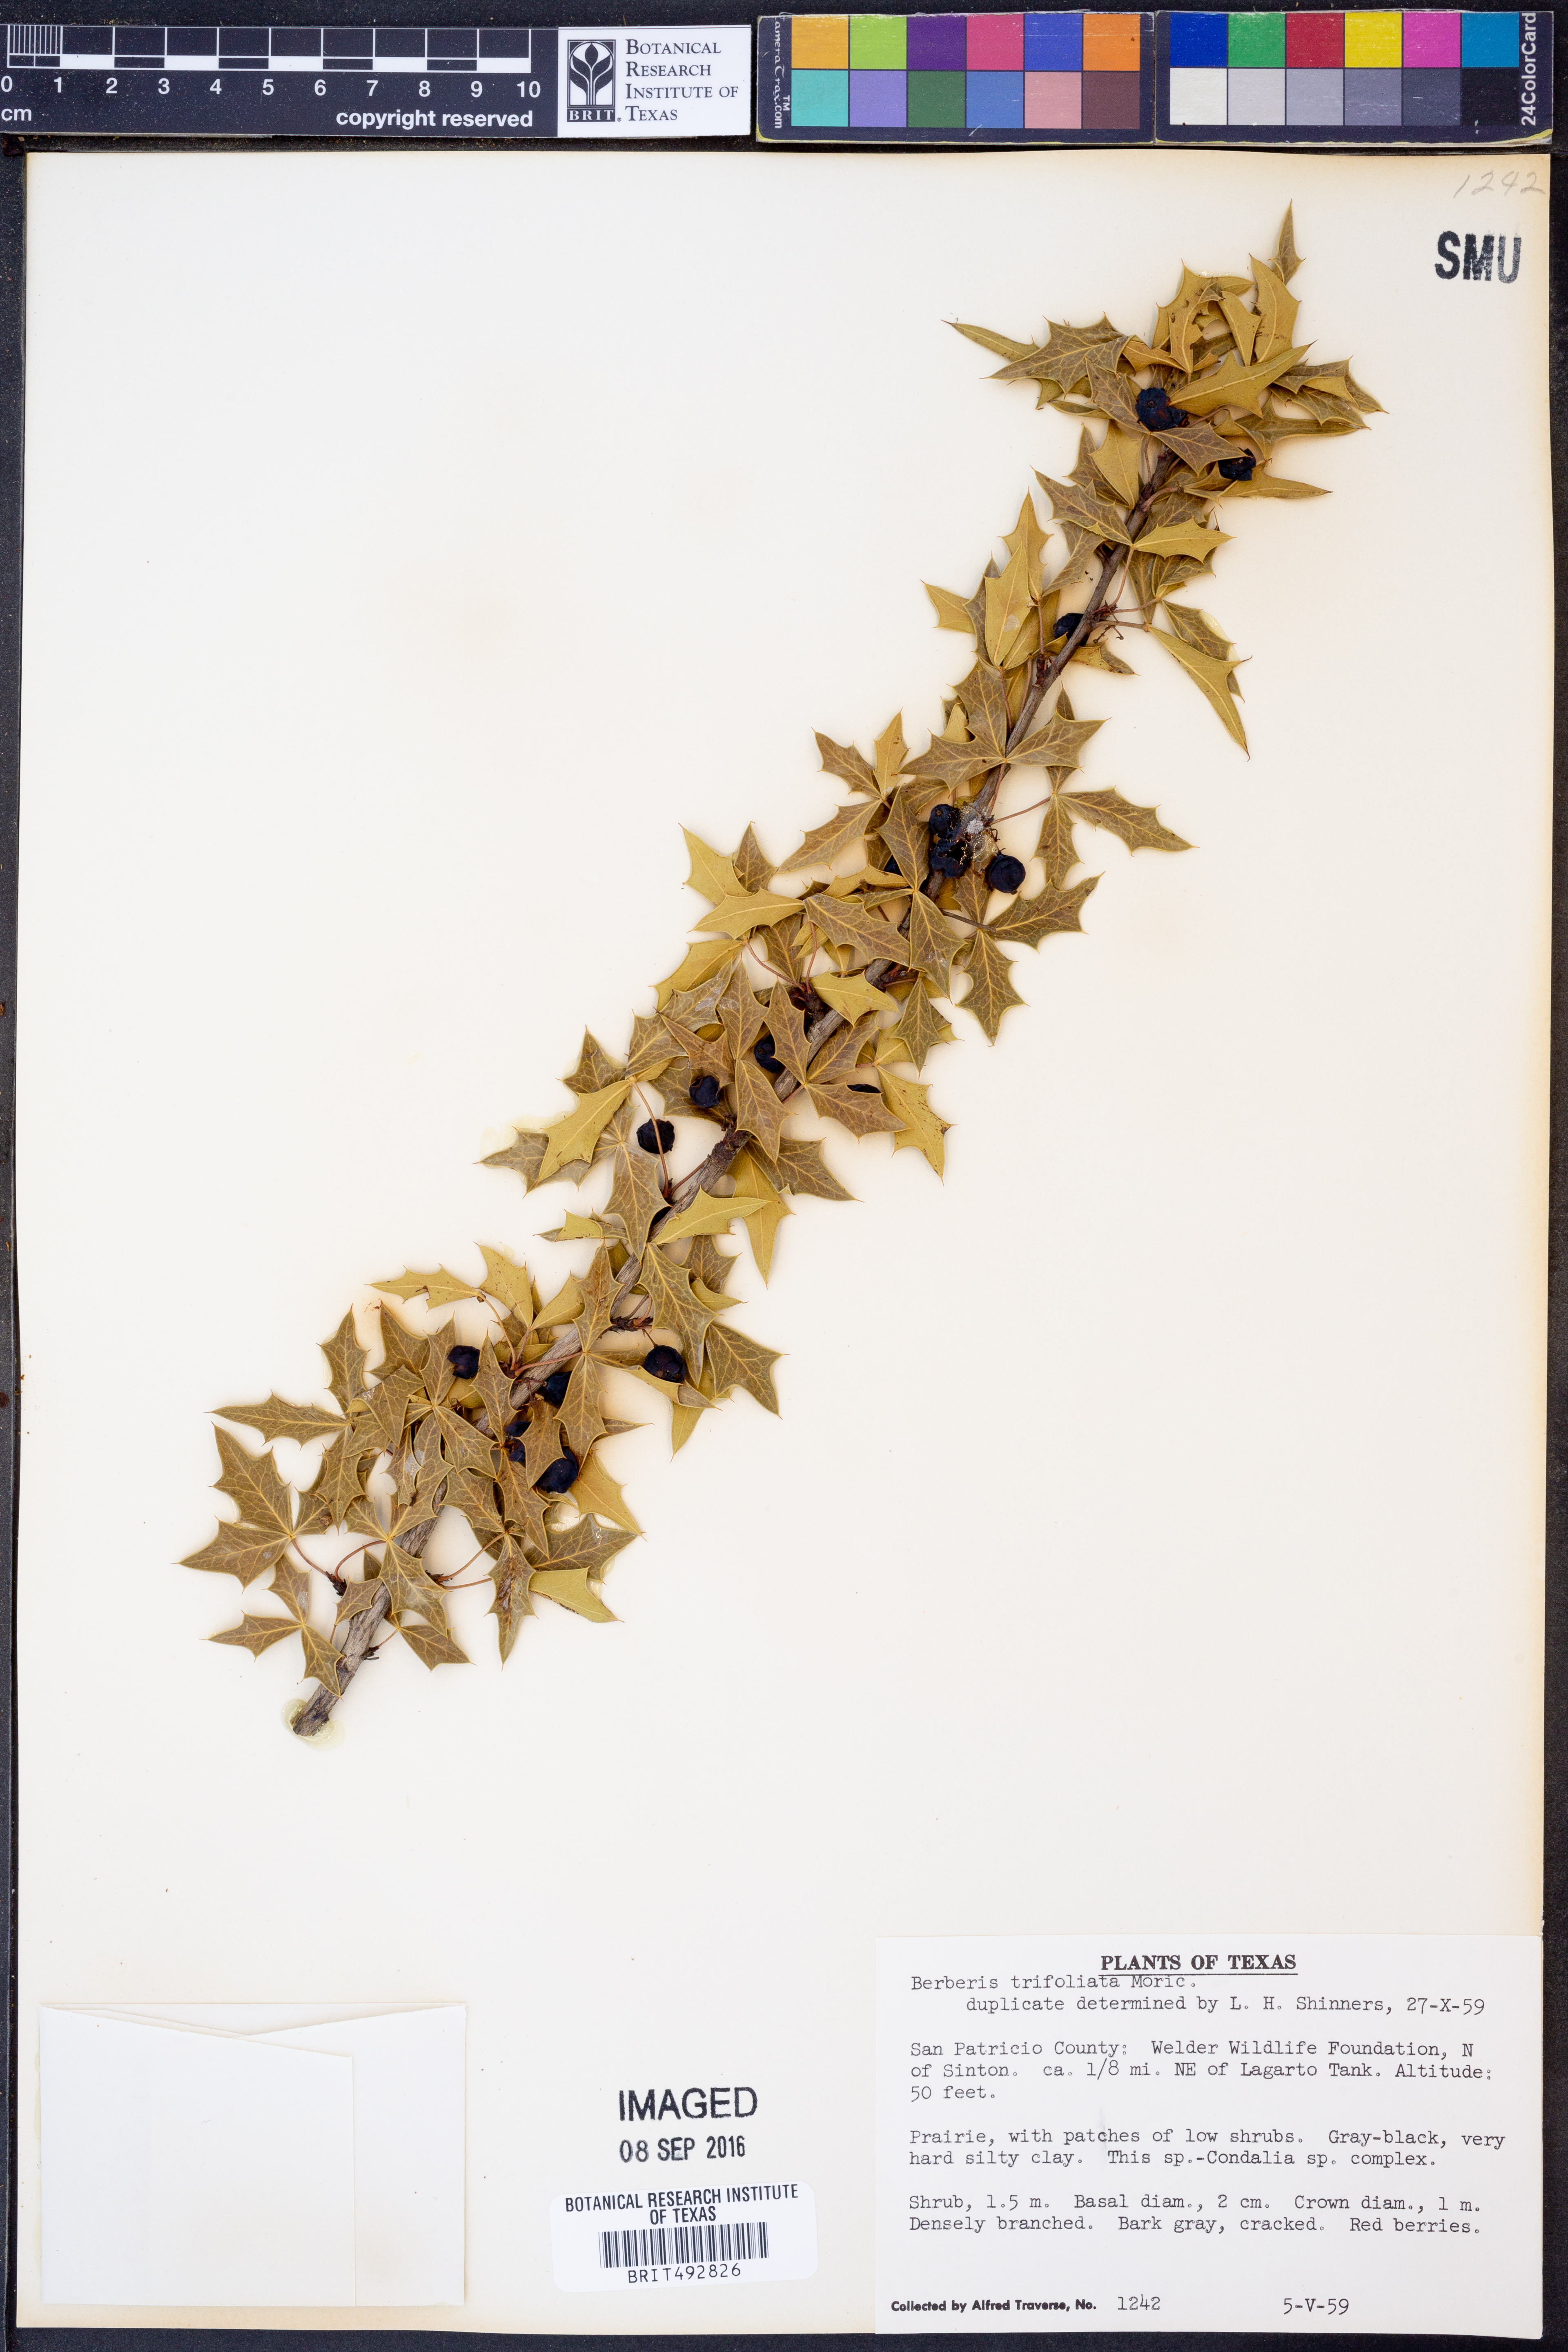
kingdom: Plantae
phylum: Tracheophyta
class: Magnoliopsida
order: Ranunculales
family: Berberidaceae
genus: Alloberberis
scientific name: Alloberberis fremontii
